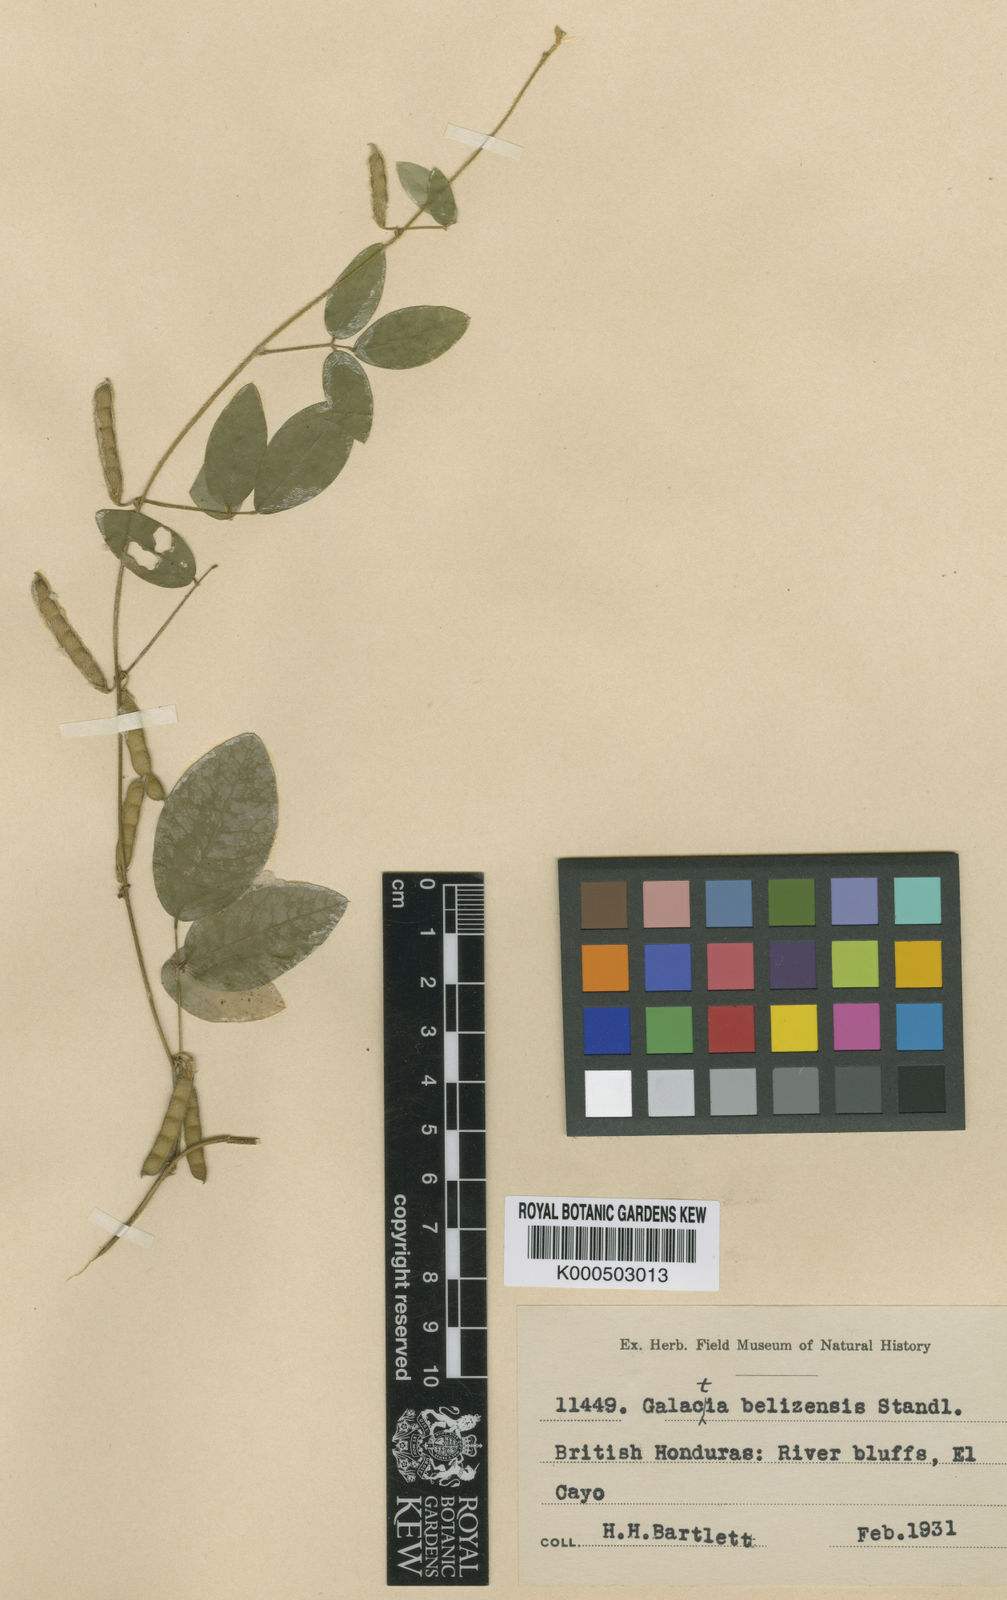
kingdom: Plantae
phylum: Tracheophyta
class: Magnoliopsida
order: Fabales
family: Fabaceae
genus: Calopogonium
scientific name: Calopogonium galactioides
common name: Legume
